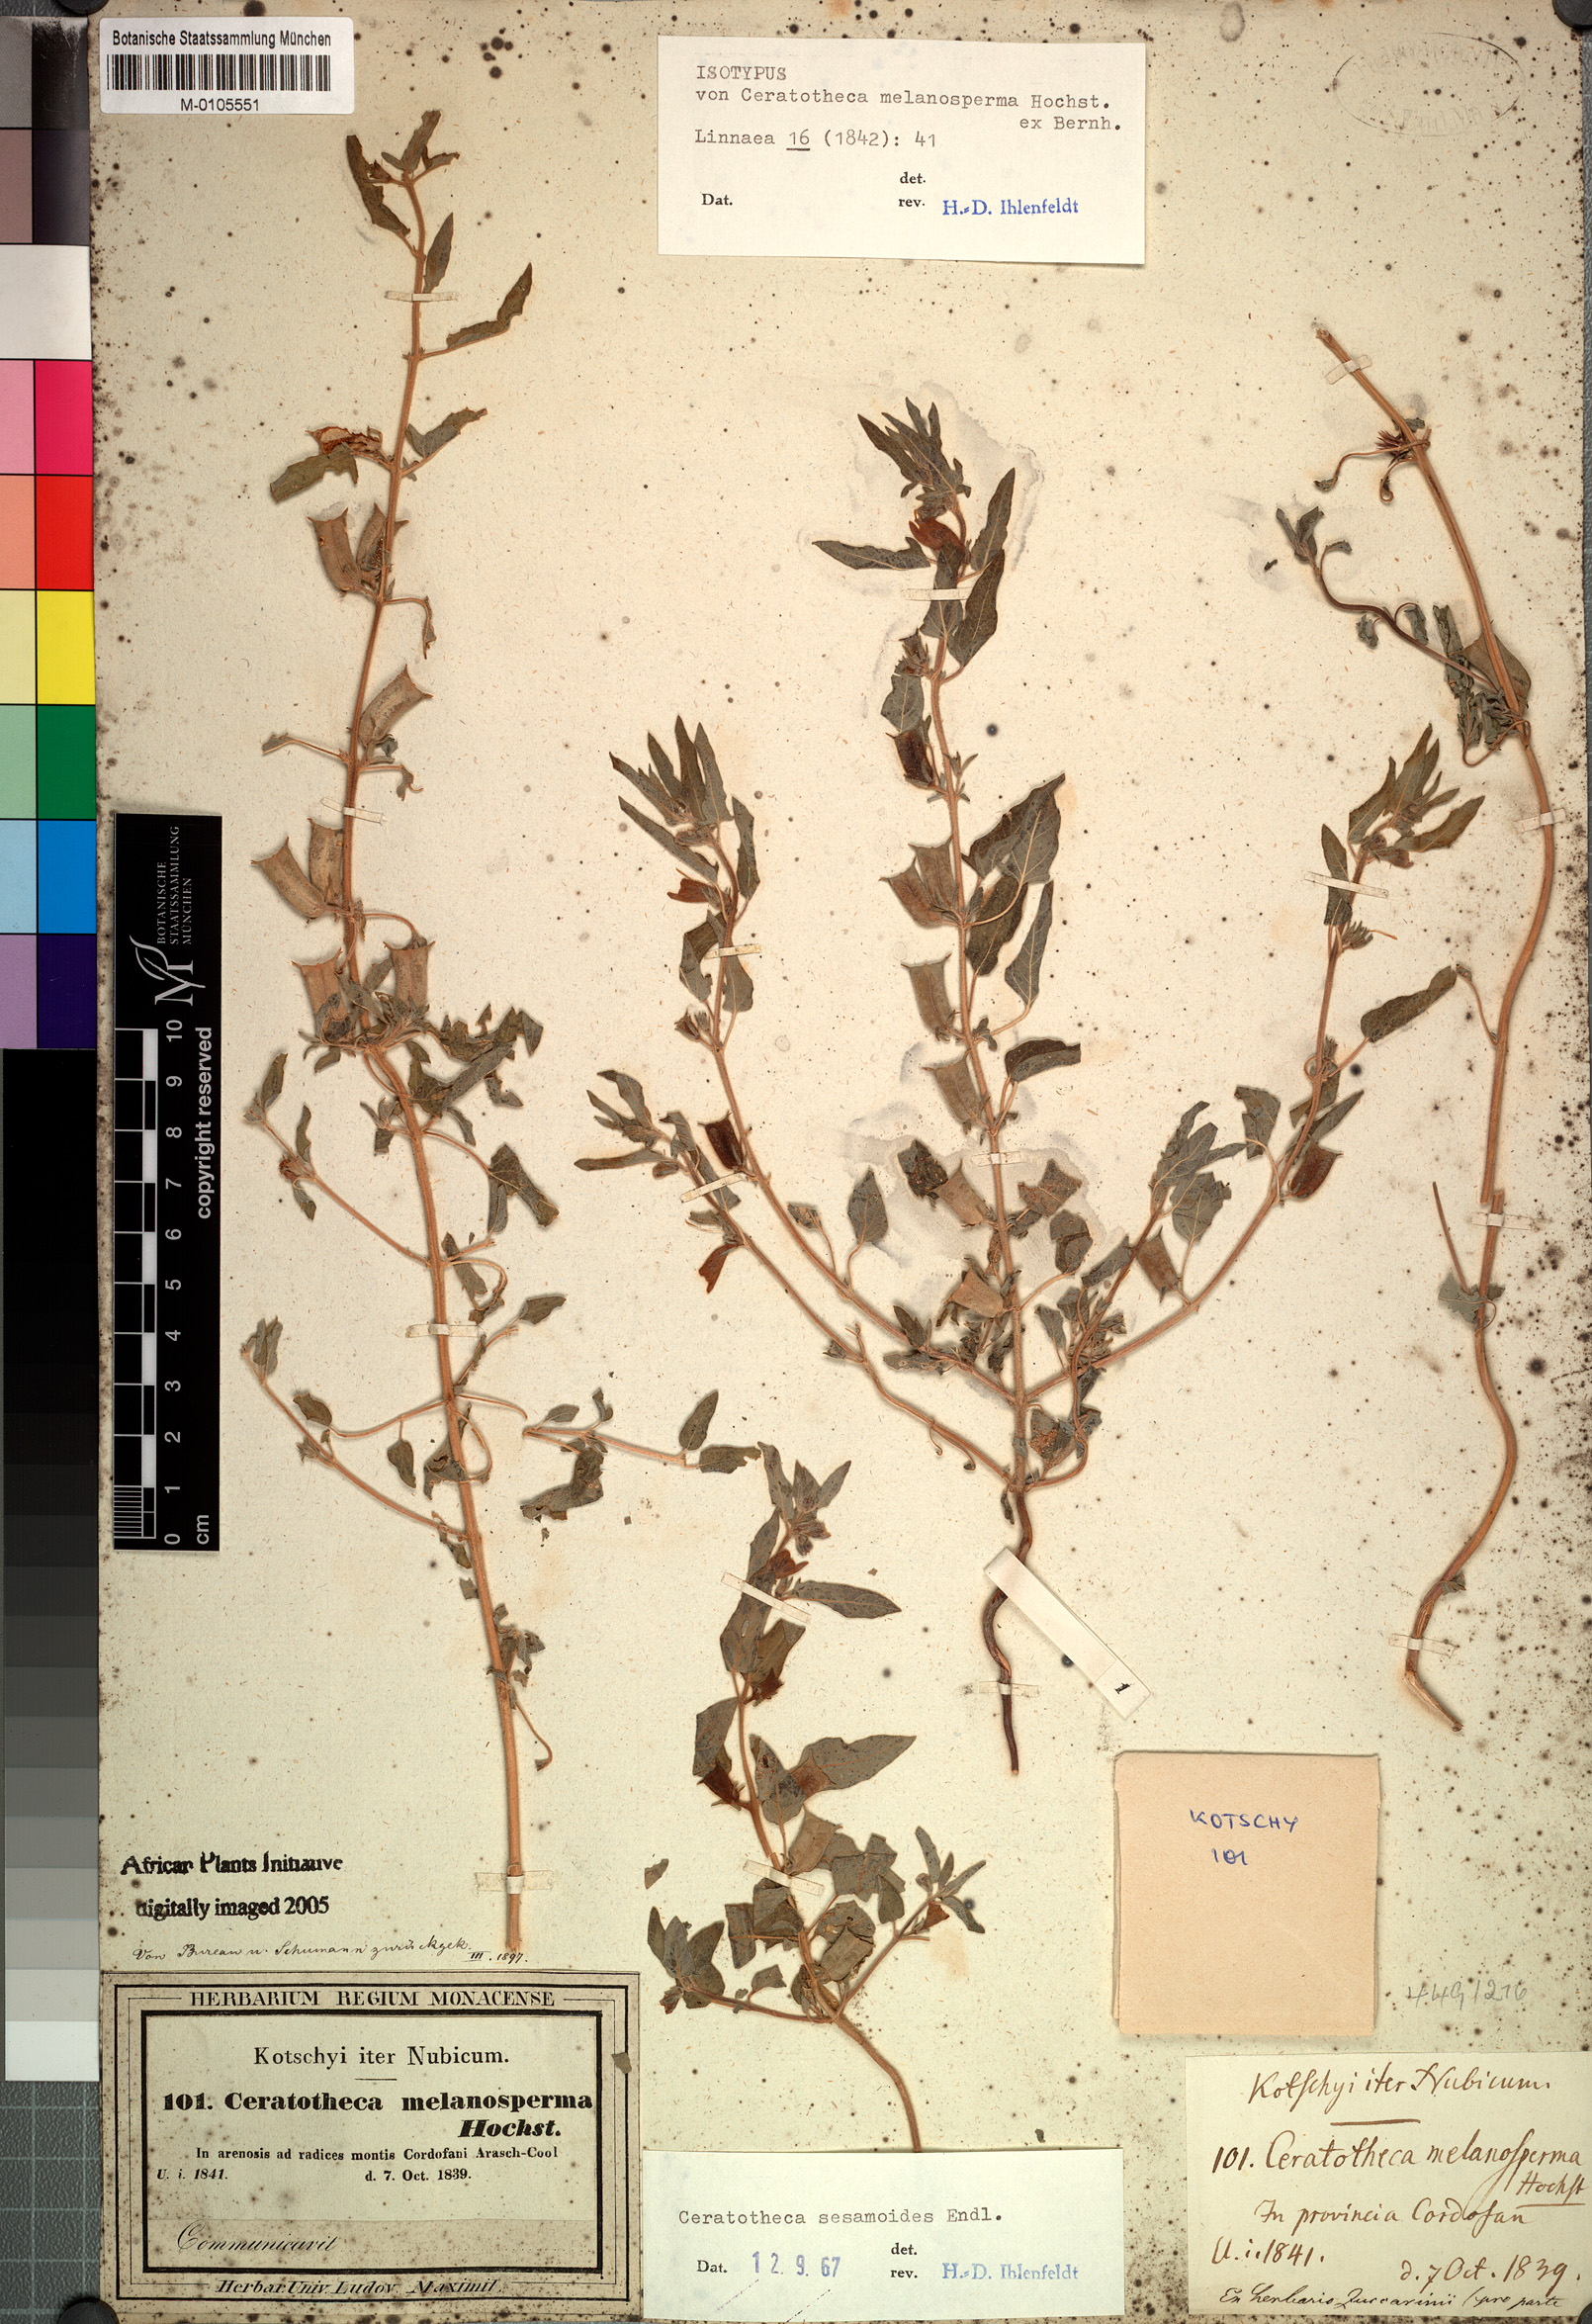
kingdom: Plantae
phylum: Tracheophyta
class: Magnoliopsida
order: Lamiales
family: Pedaliaceae
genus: Sesamum
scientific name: Sesamum sesamoides
